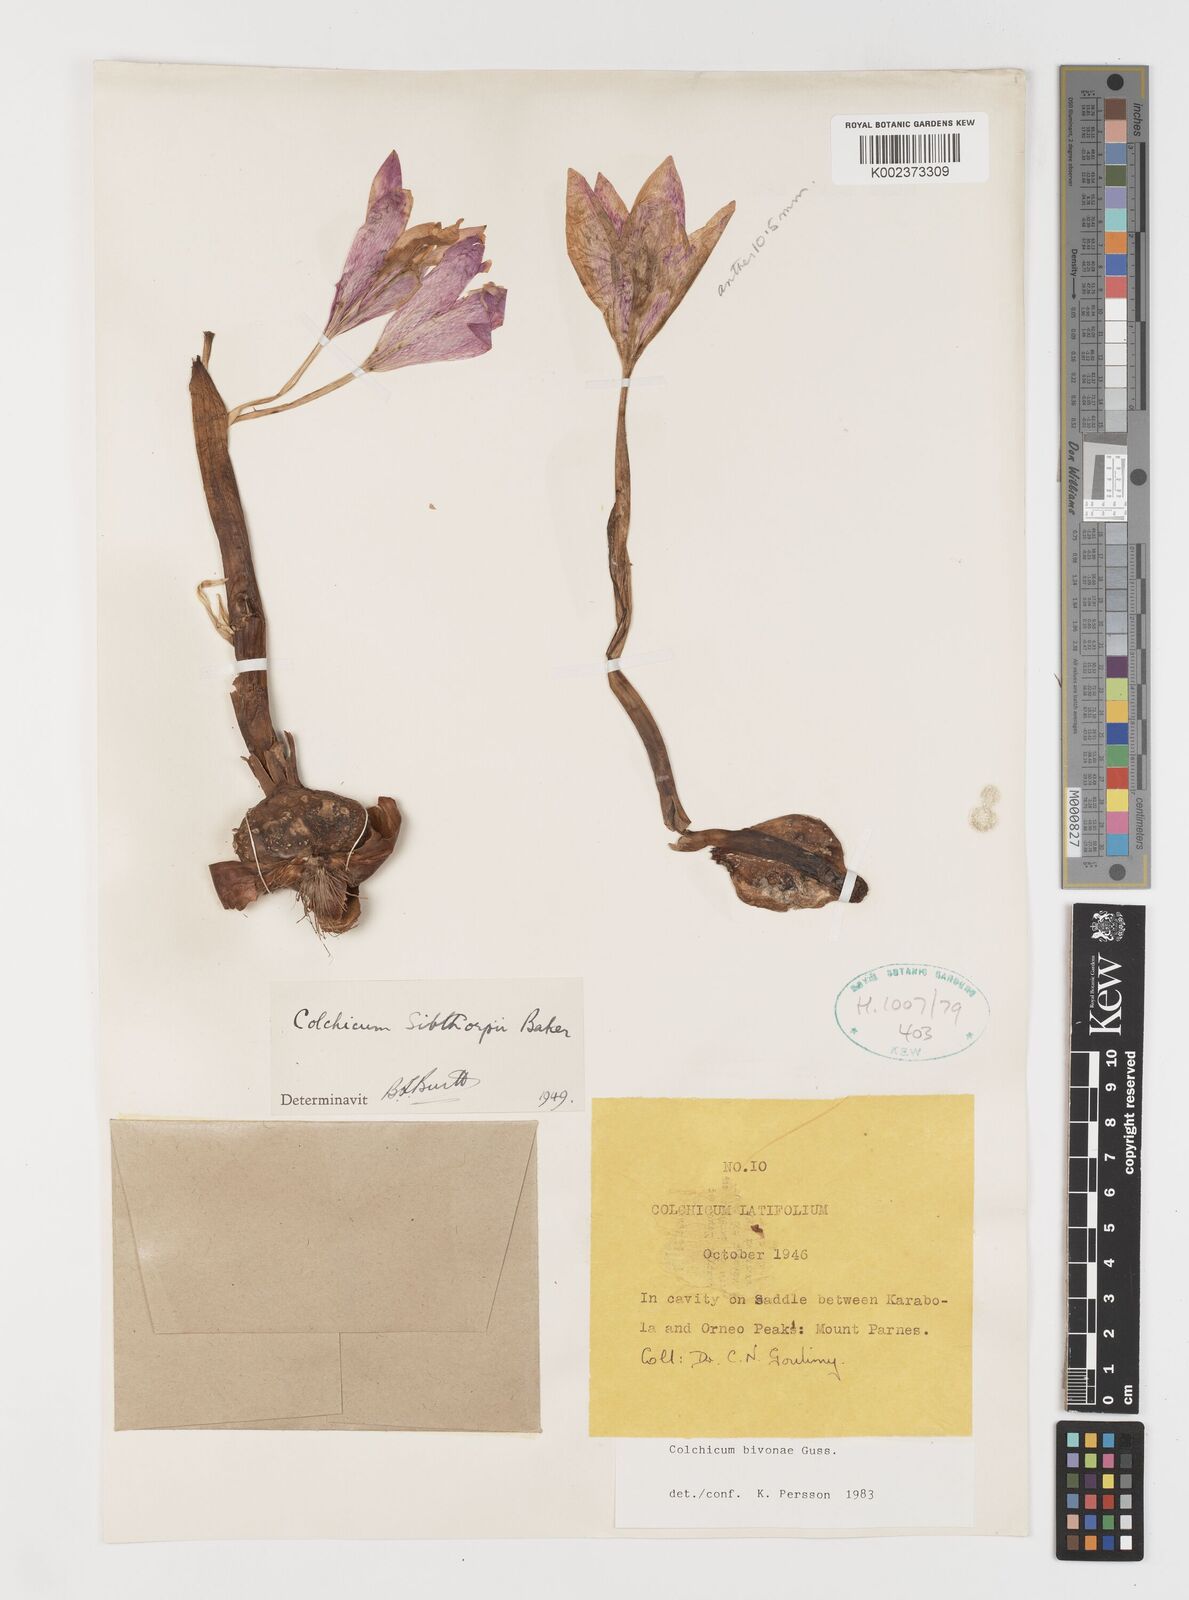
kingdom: Plantae
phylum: Tracheophyta
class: Liliopsida
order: Liliales
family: Colchicaceae
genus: Colchicum
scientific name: Colchicum bivonae
